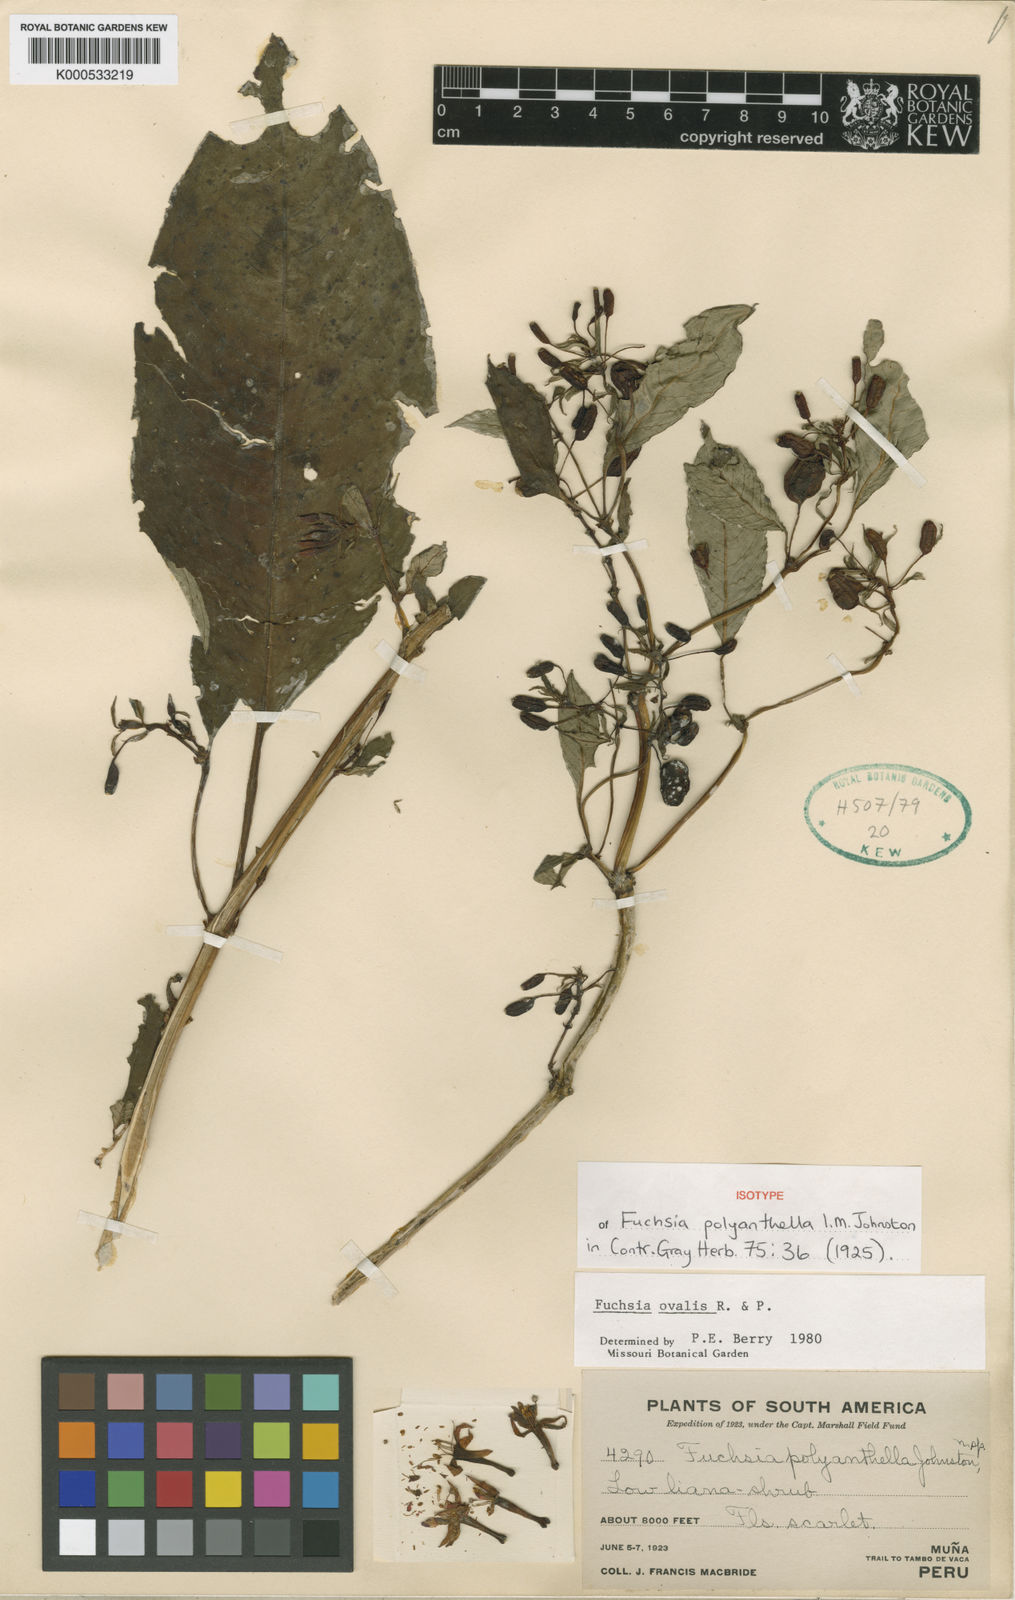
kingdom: Plantae
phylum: Tracheophyta
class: Magnoliopsida
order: Myrtales
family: Onagraceae
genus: Fuchsia
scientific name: Fuchsia ovalis
